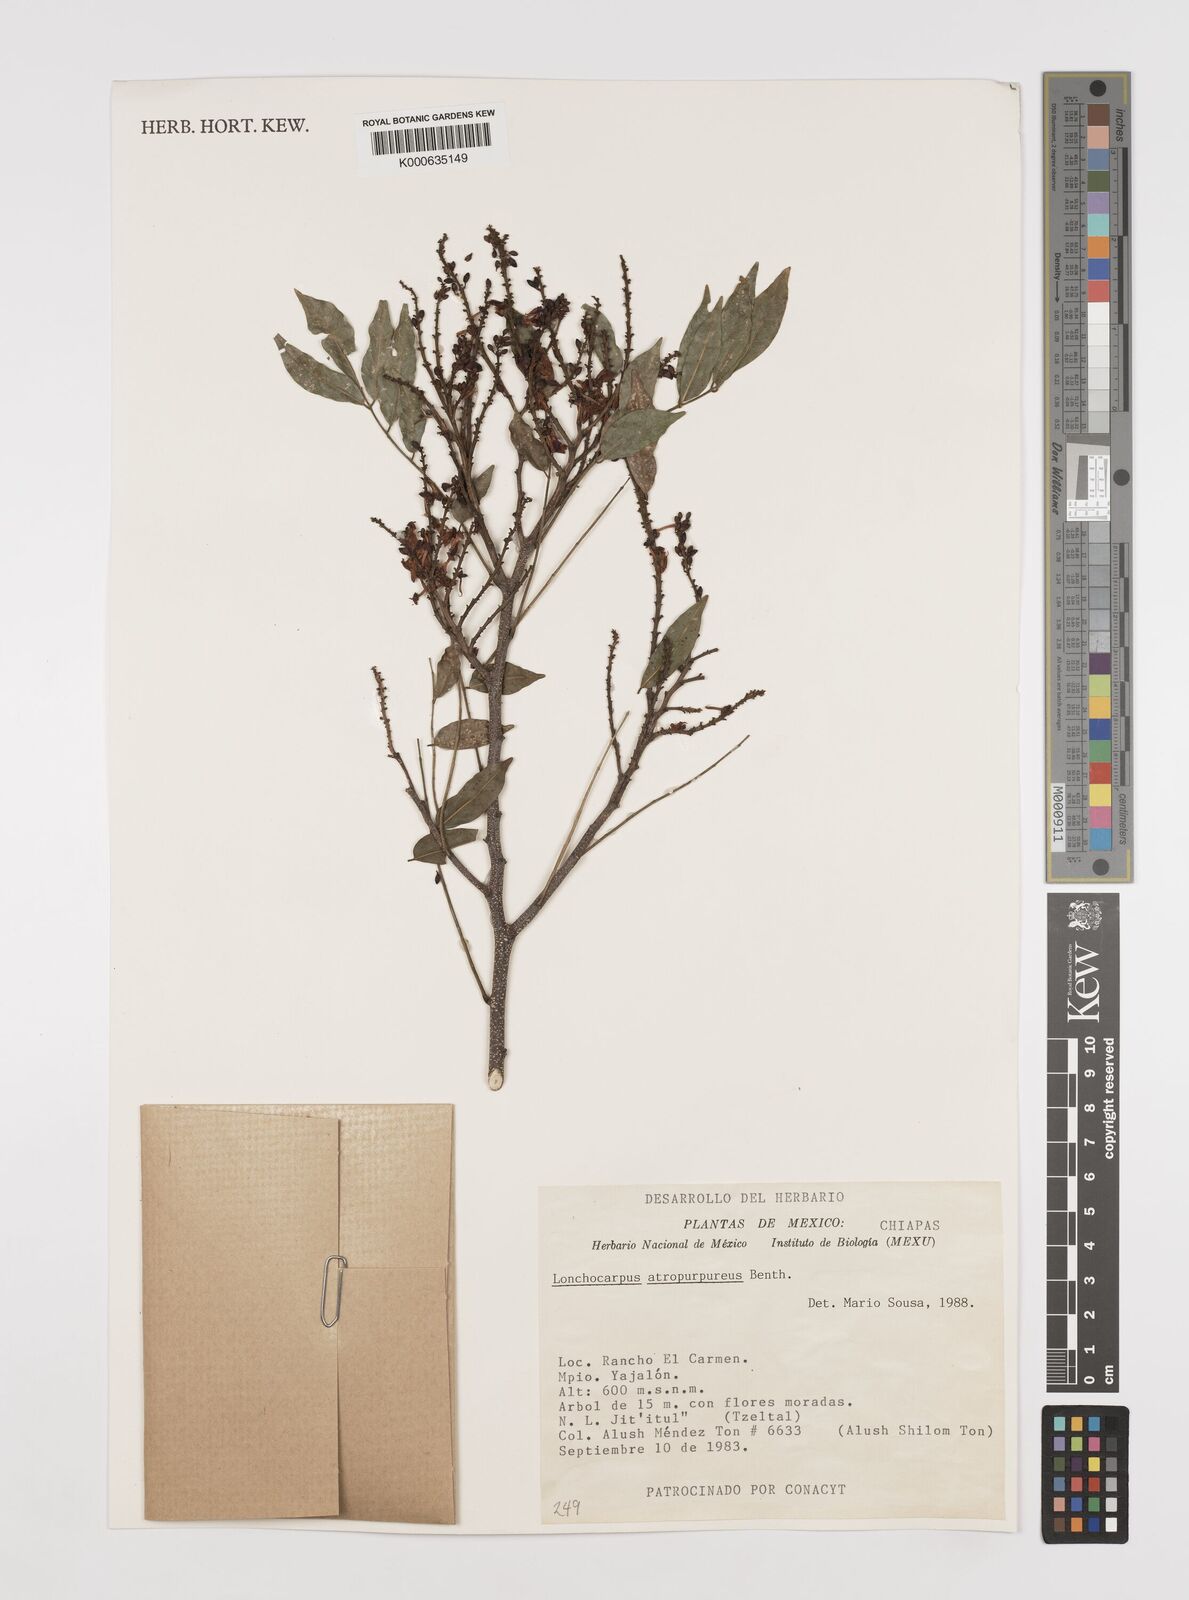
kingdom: Plantae
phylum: Tracheophyta
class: Magnoliopsida
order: Fabales
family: Fabaceae
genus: Lonchocarpus
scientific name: Lonchocarpus atropurpureus
